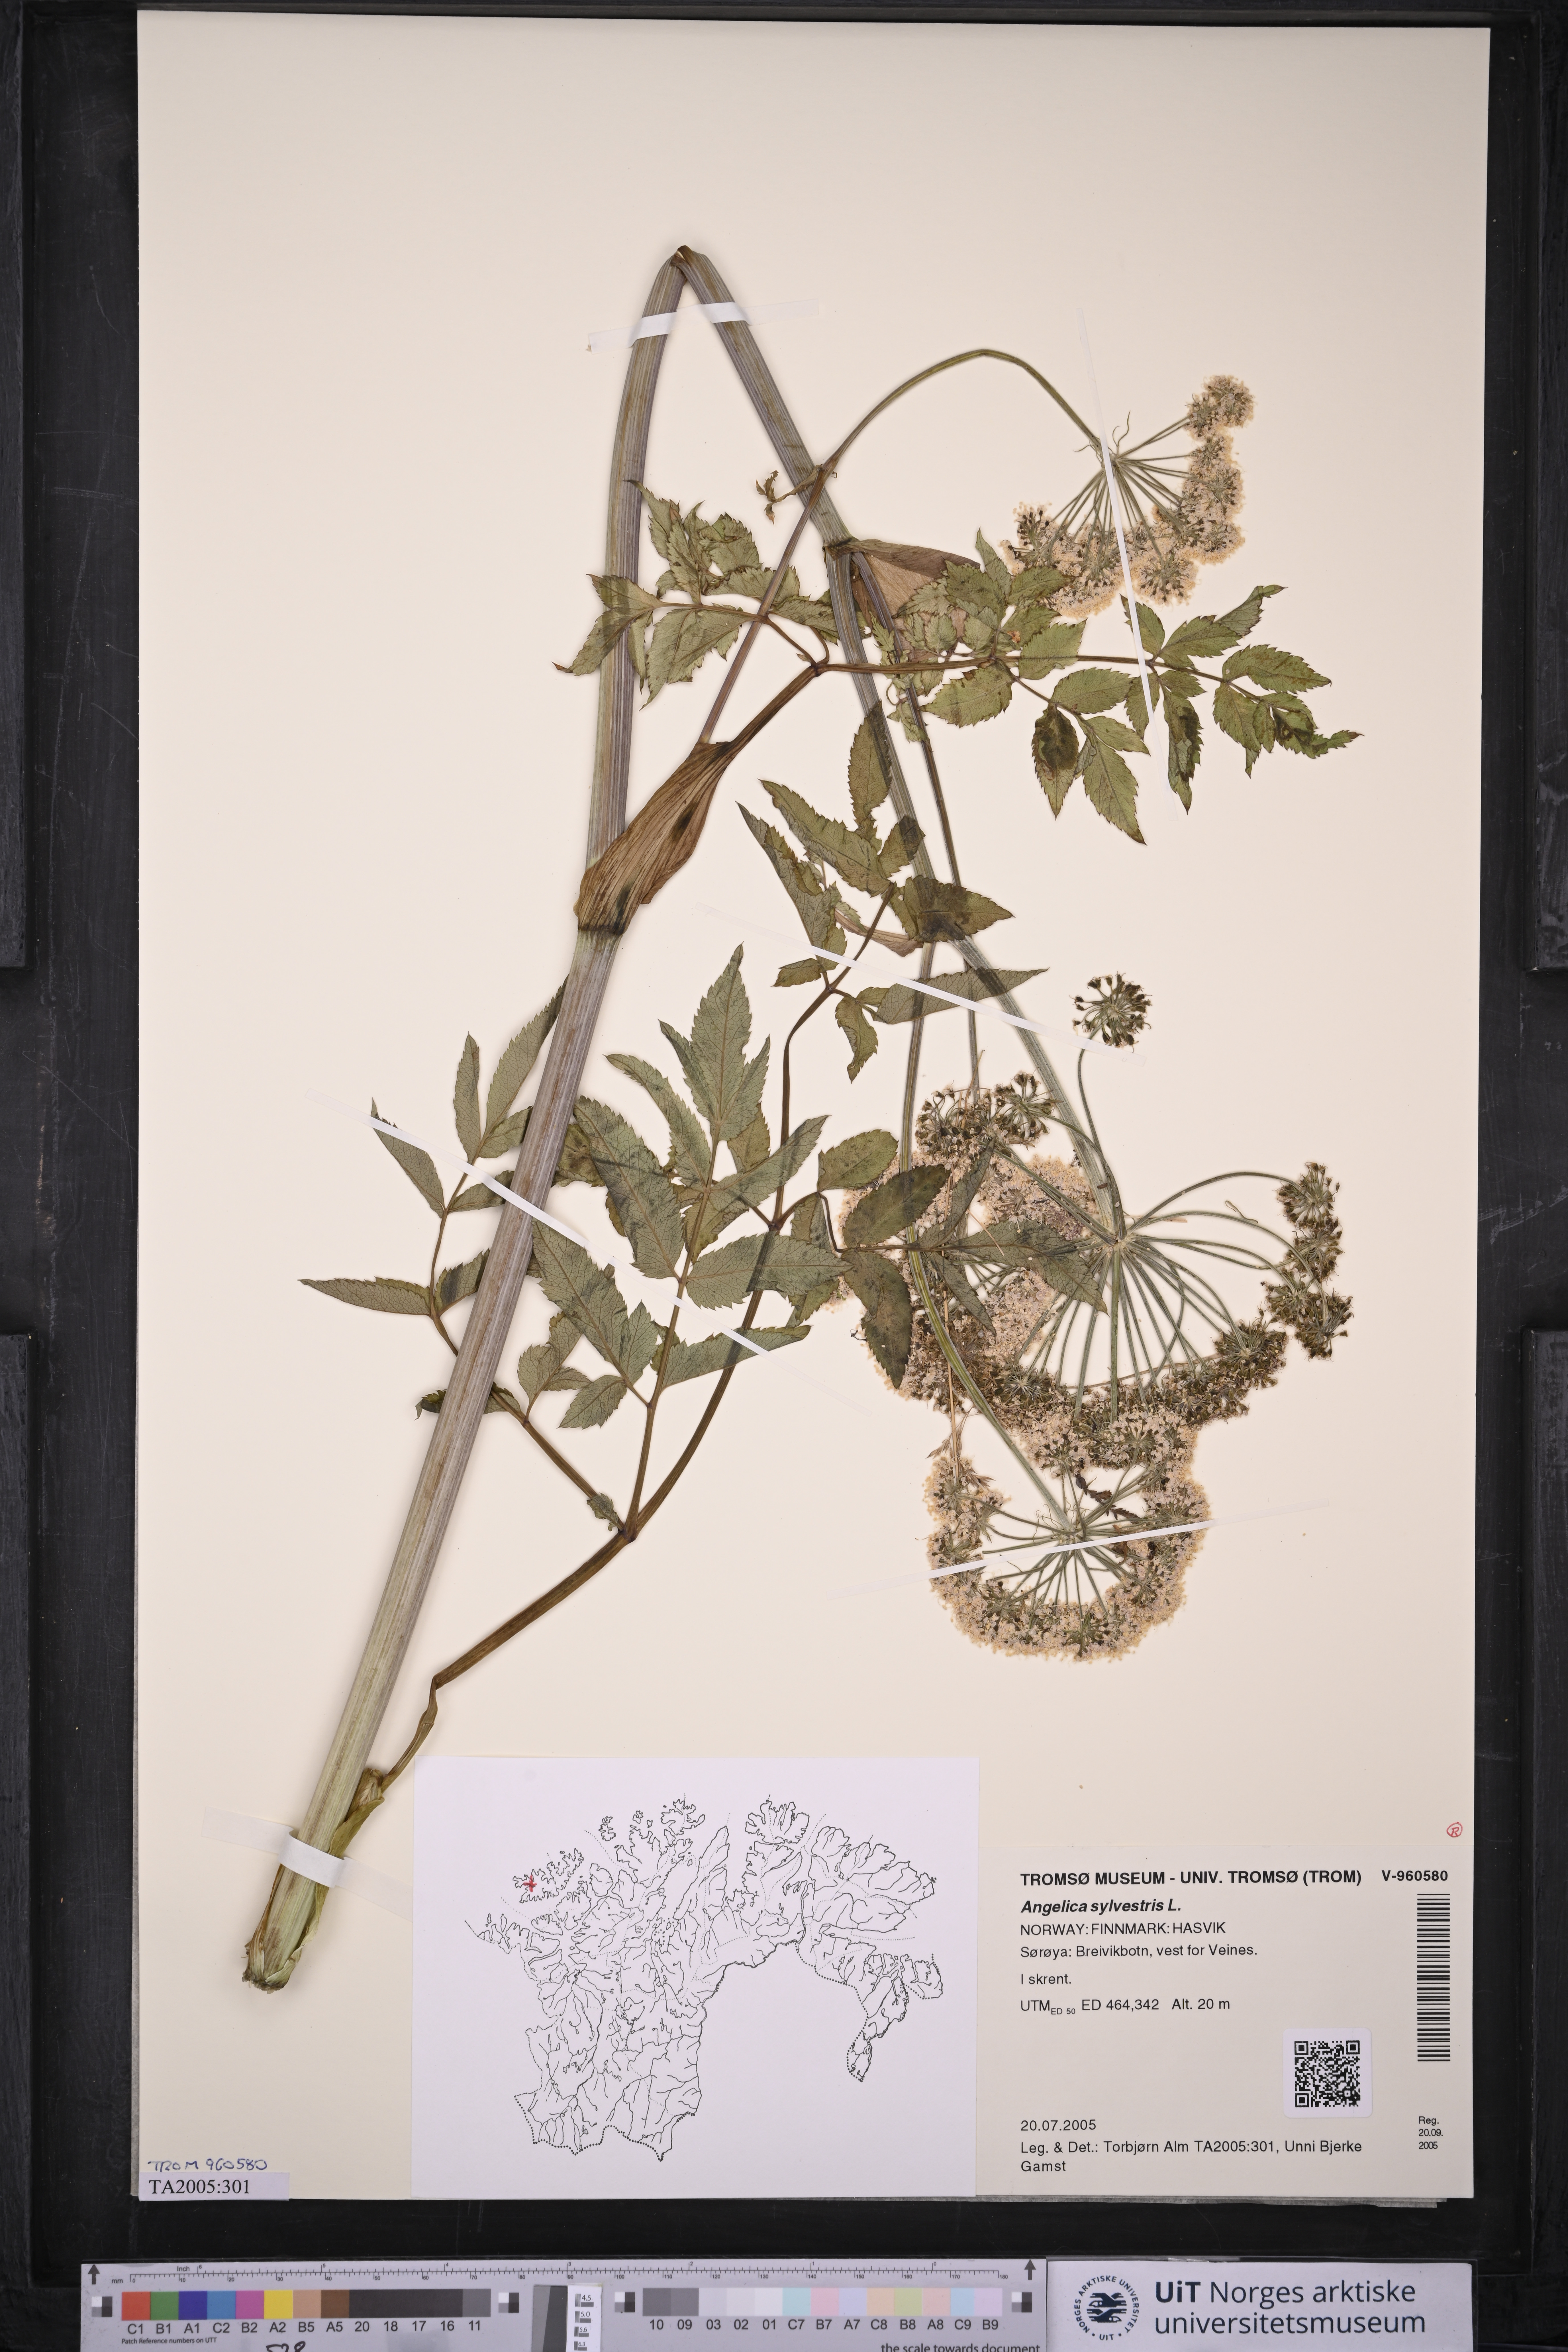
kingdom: Plantae
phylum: Tracheophyta
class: Magnoliopsida
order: Apiales
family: Apiaceae
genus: Angelica
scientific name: Angelica sylvestris
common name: Wild angelica
